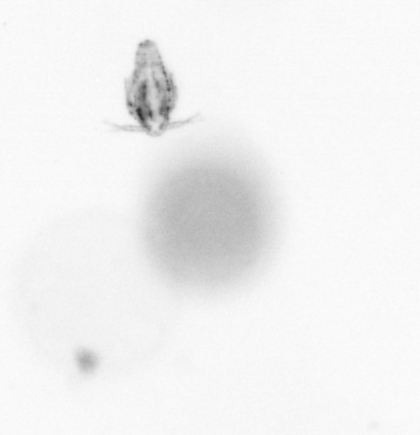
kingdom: Animalia
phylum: Arthropoda
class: Copepoda
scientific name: Copepoda
